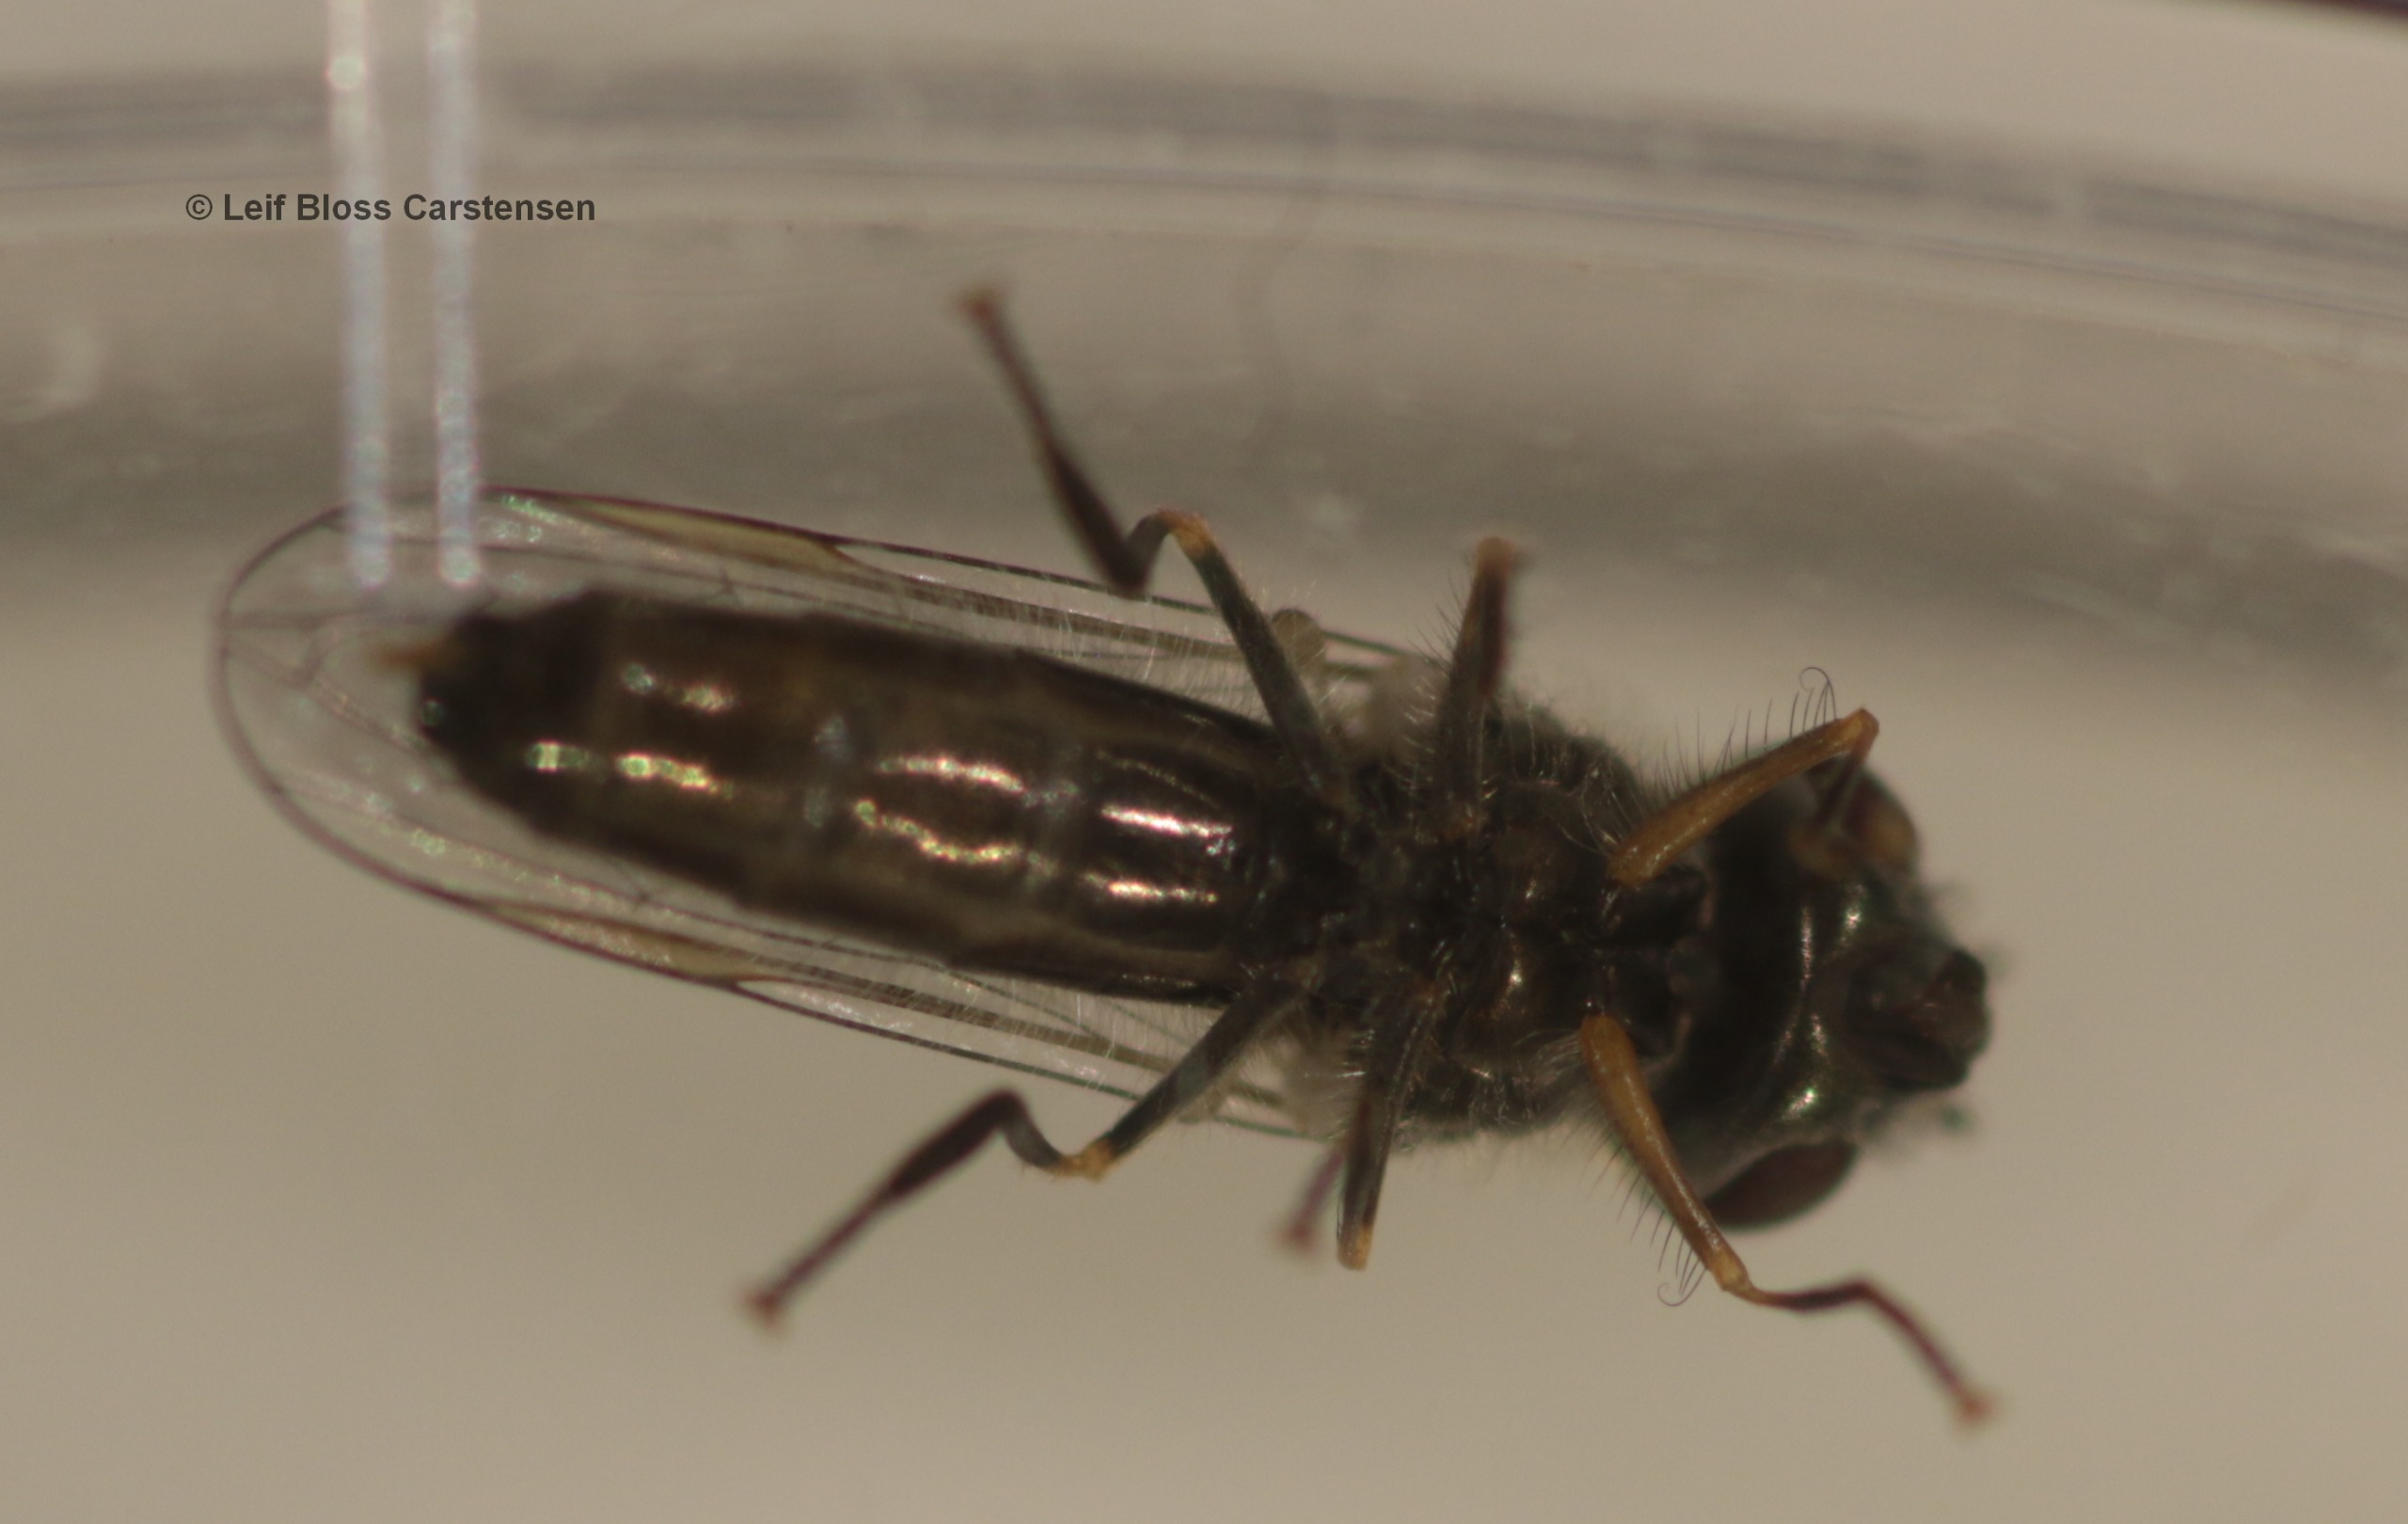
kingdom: Animalia
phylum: Arthropoda
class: Insecta
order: Diptera
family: Syrphidae
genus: Platycheirus
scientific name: Platycheirus ambiguum
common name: Gråplettet spiralhårsflue
